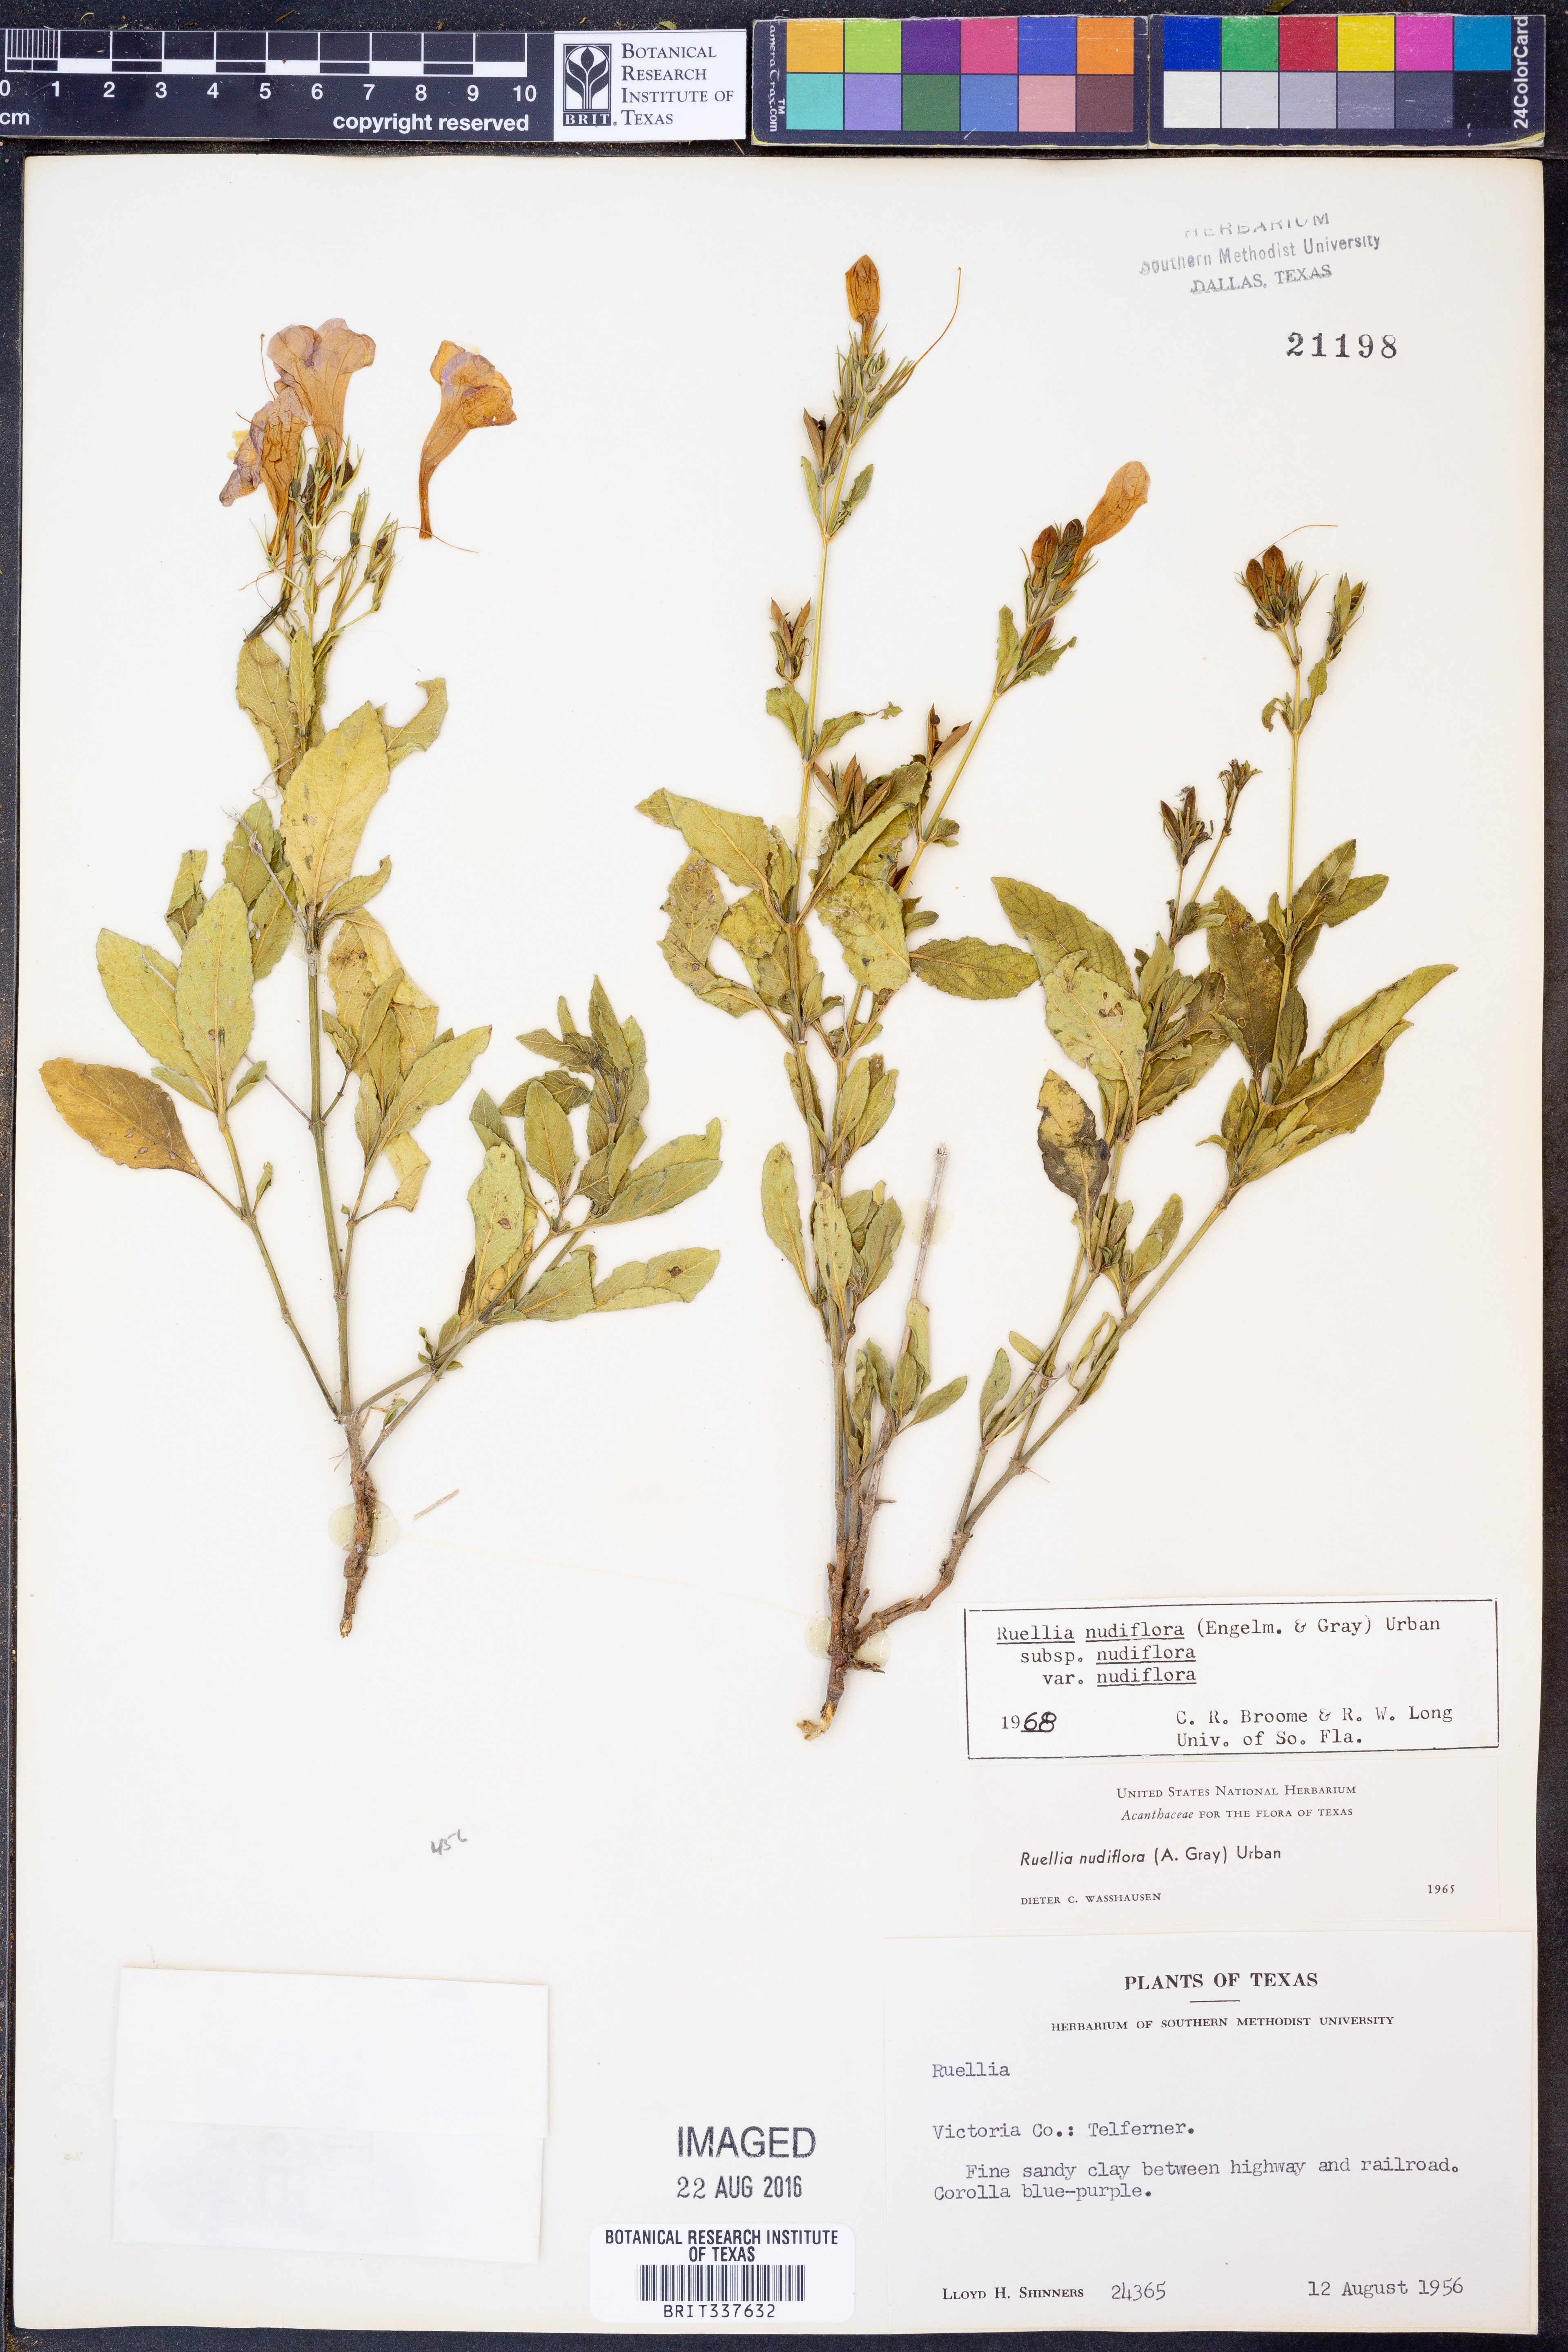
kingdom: Plantae
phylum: Tracheophyta
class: Magnoliopsida
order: Lamiales
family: Acanthaceae
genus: Ruellia
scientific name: Ruellia ciliatiflora
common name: Hairyflower wild petunia
